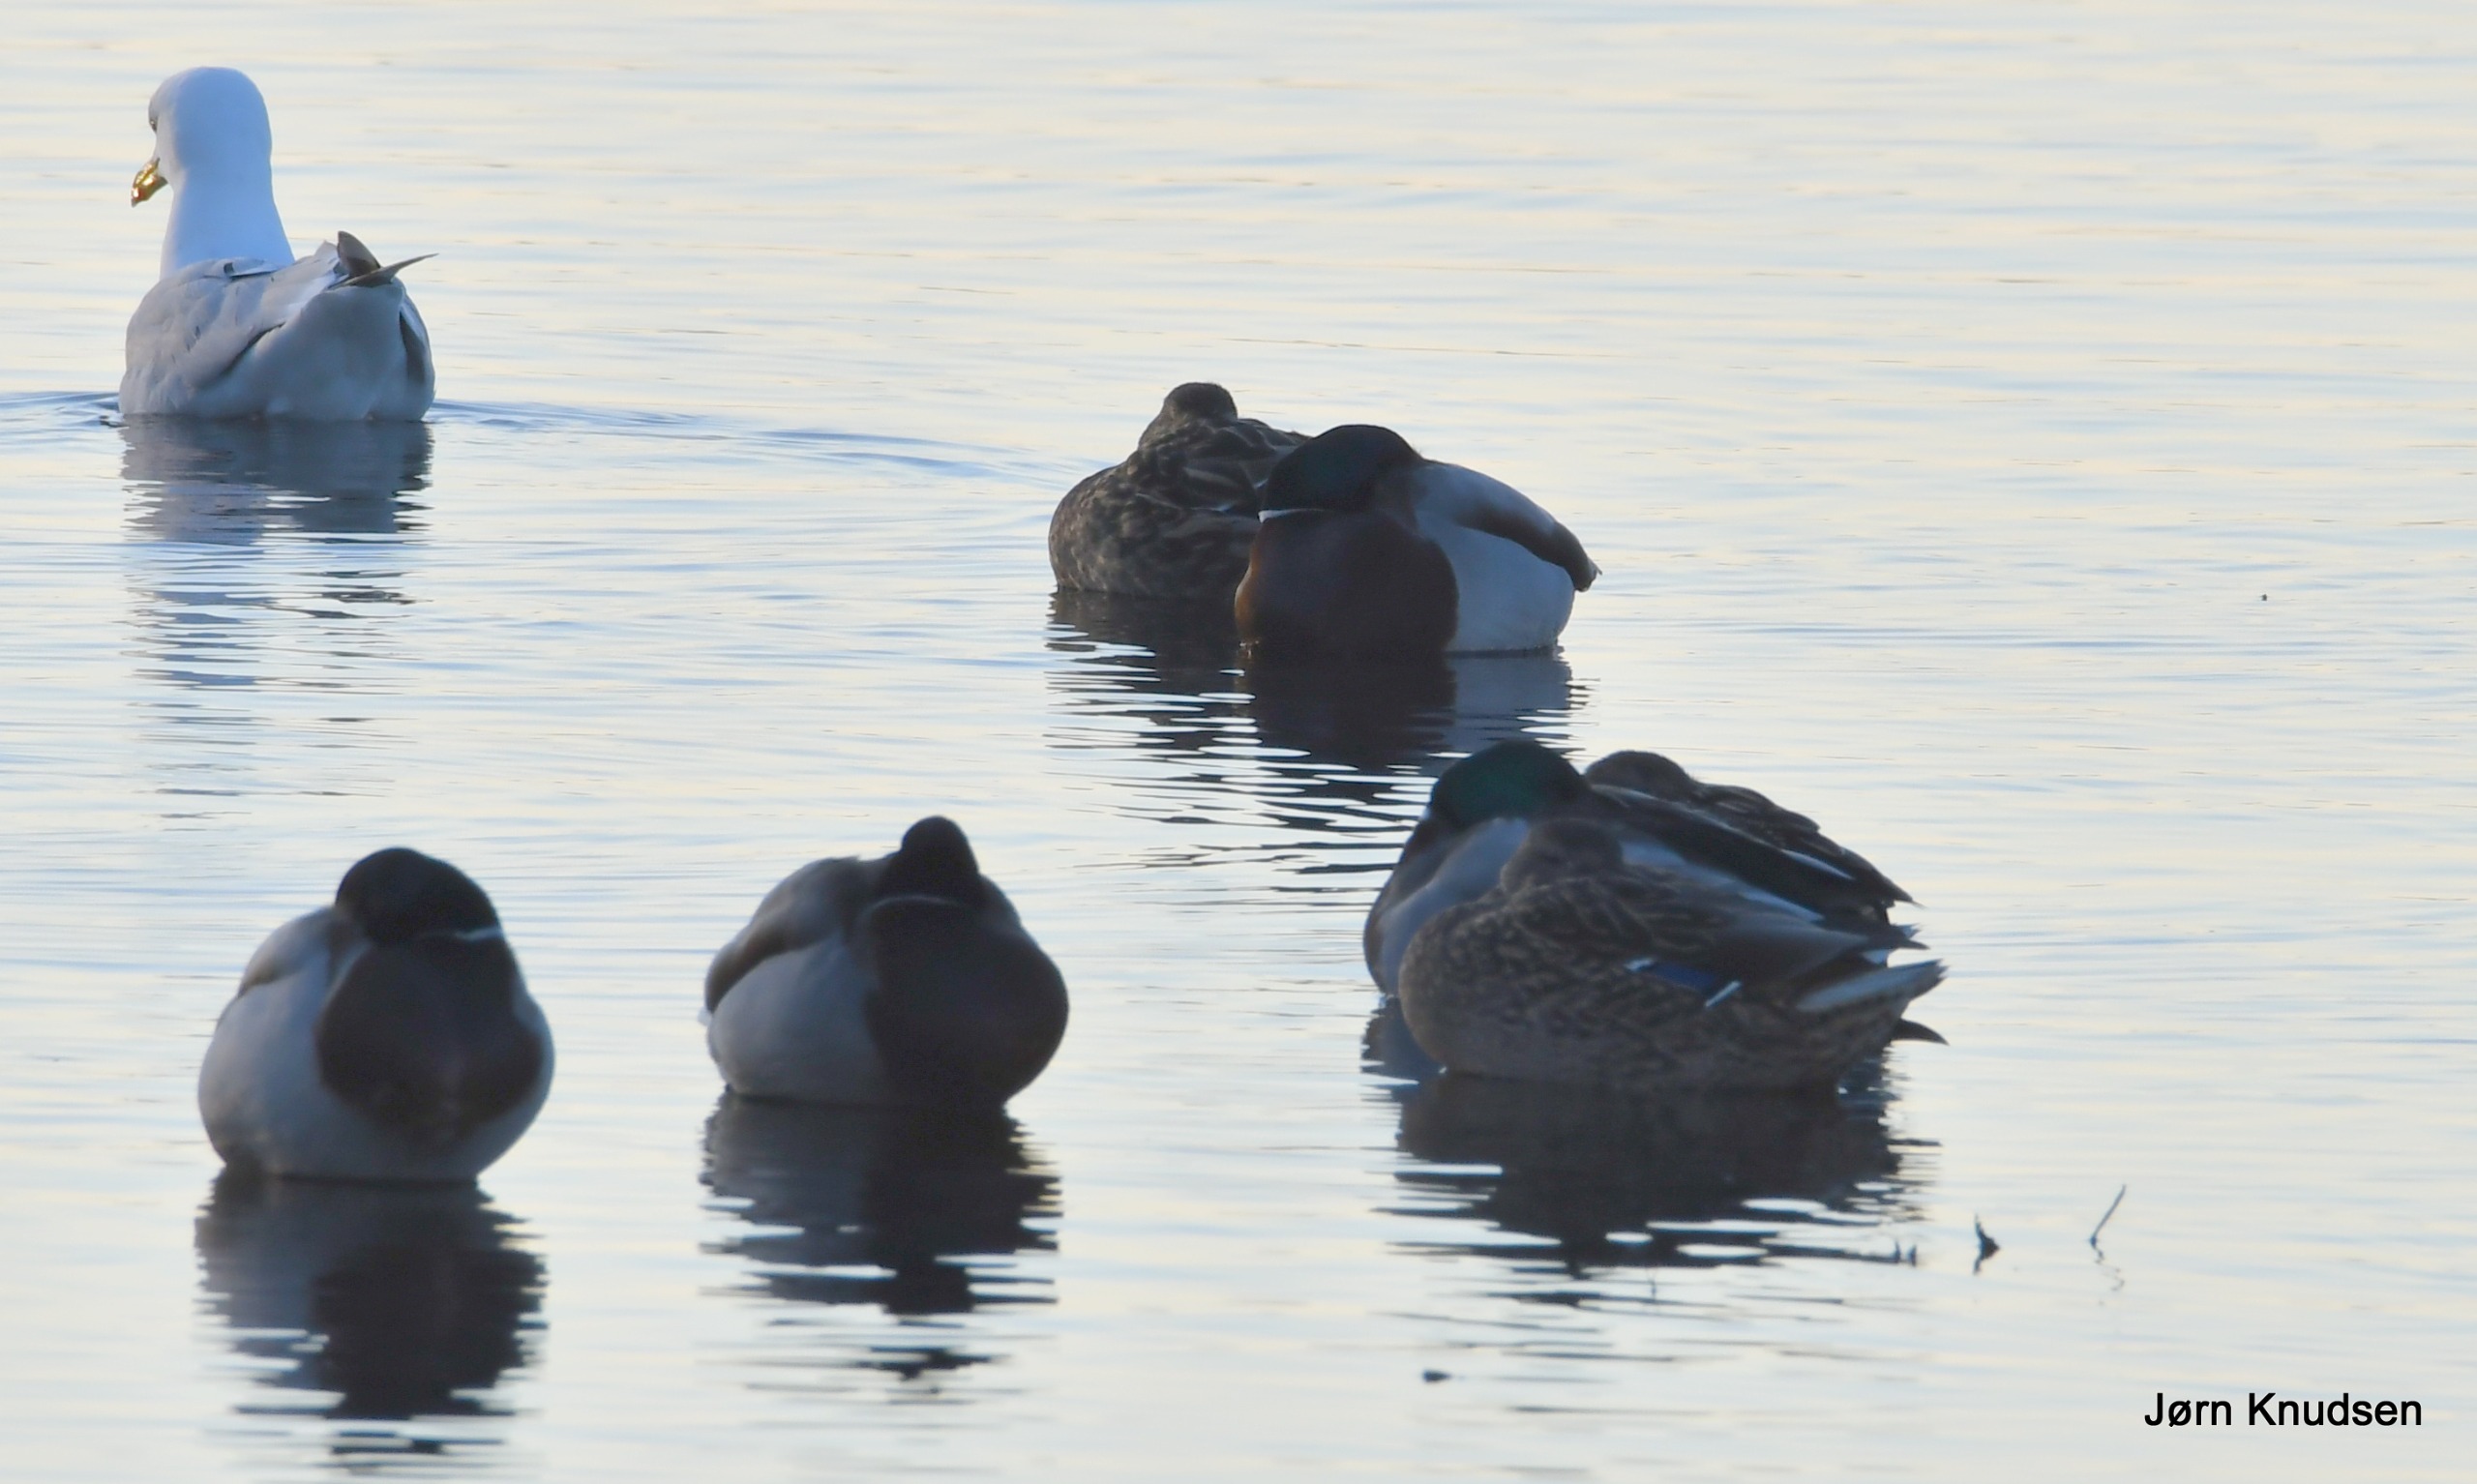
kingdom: Animalia
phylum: Chordata
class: Aves
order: Anseriformes
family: Anatidae
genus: Anas
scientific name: Anas platyrhynchos
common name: Gråand
